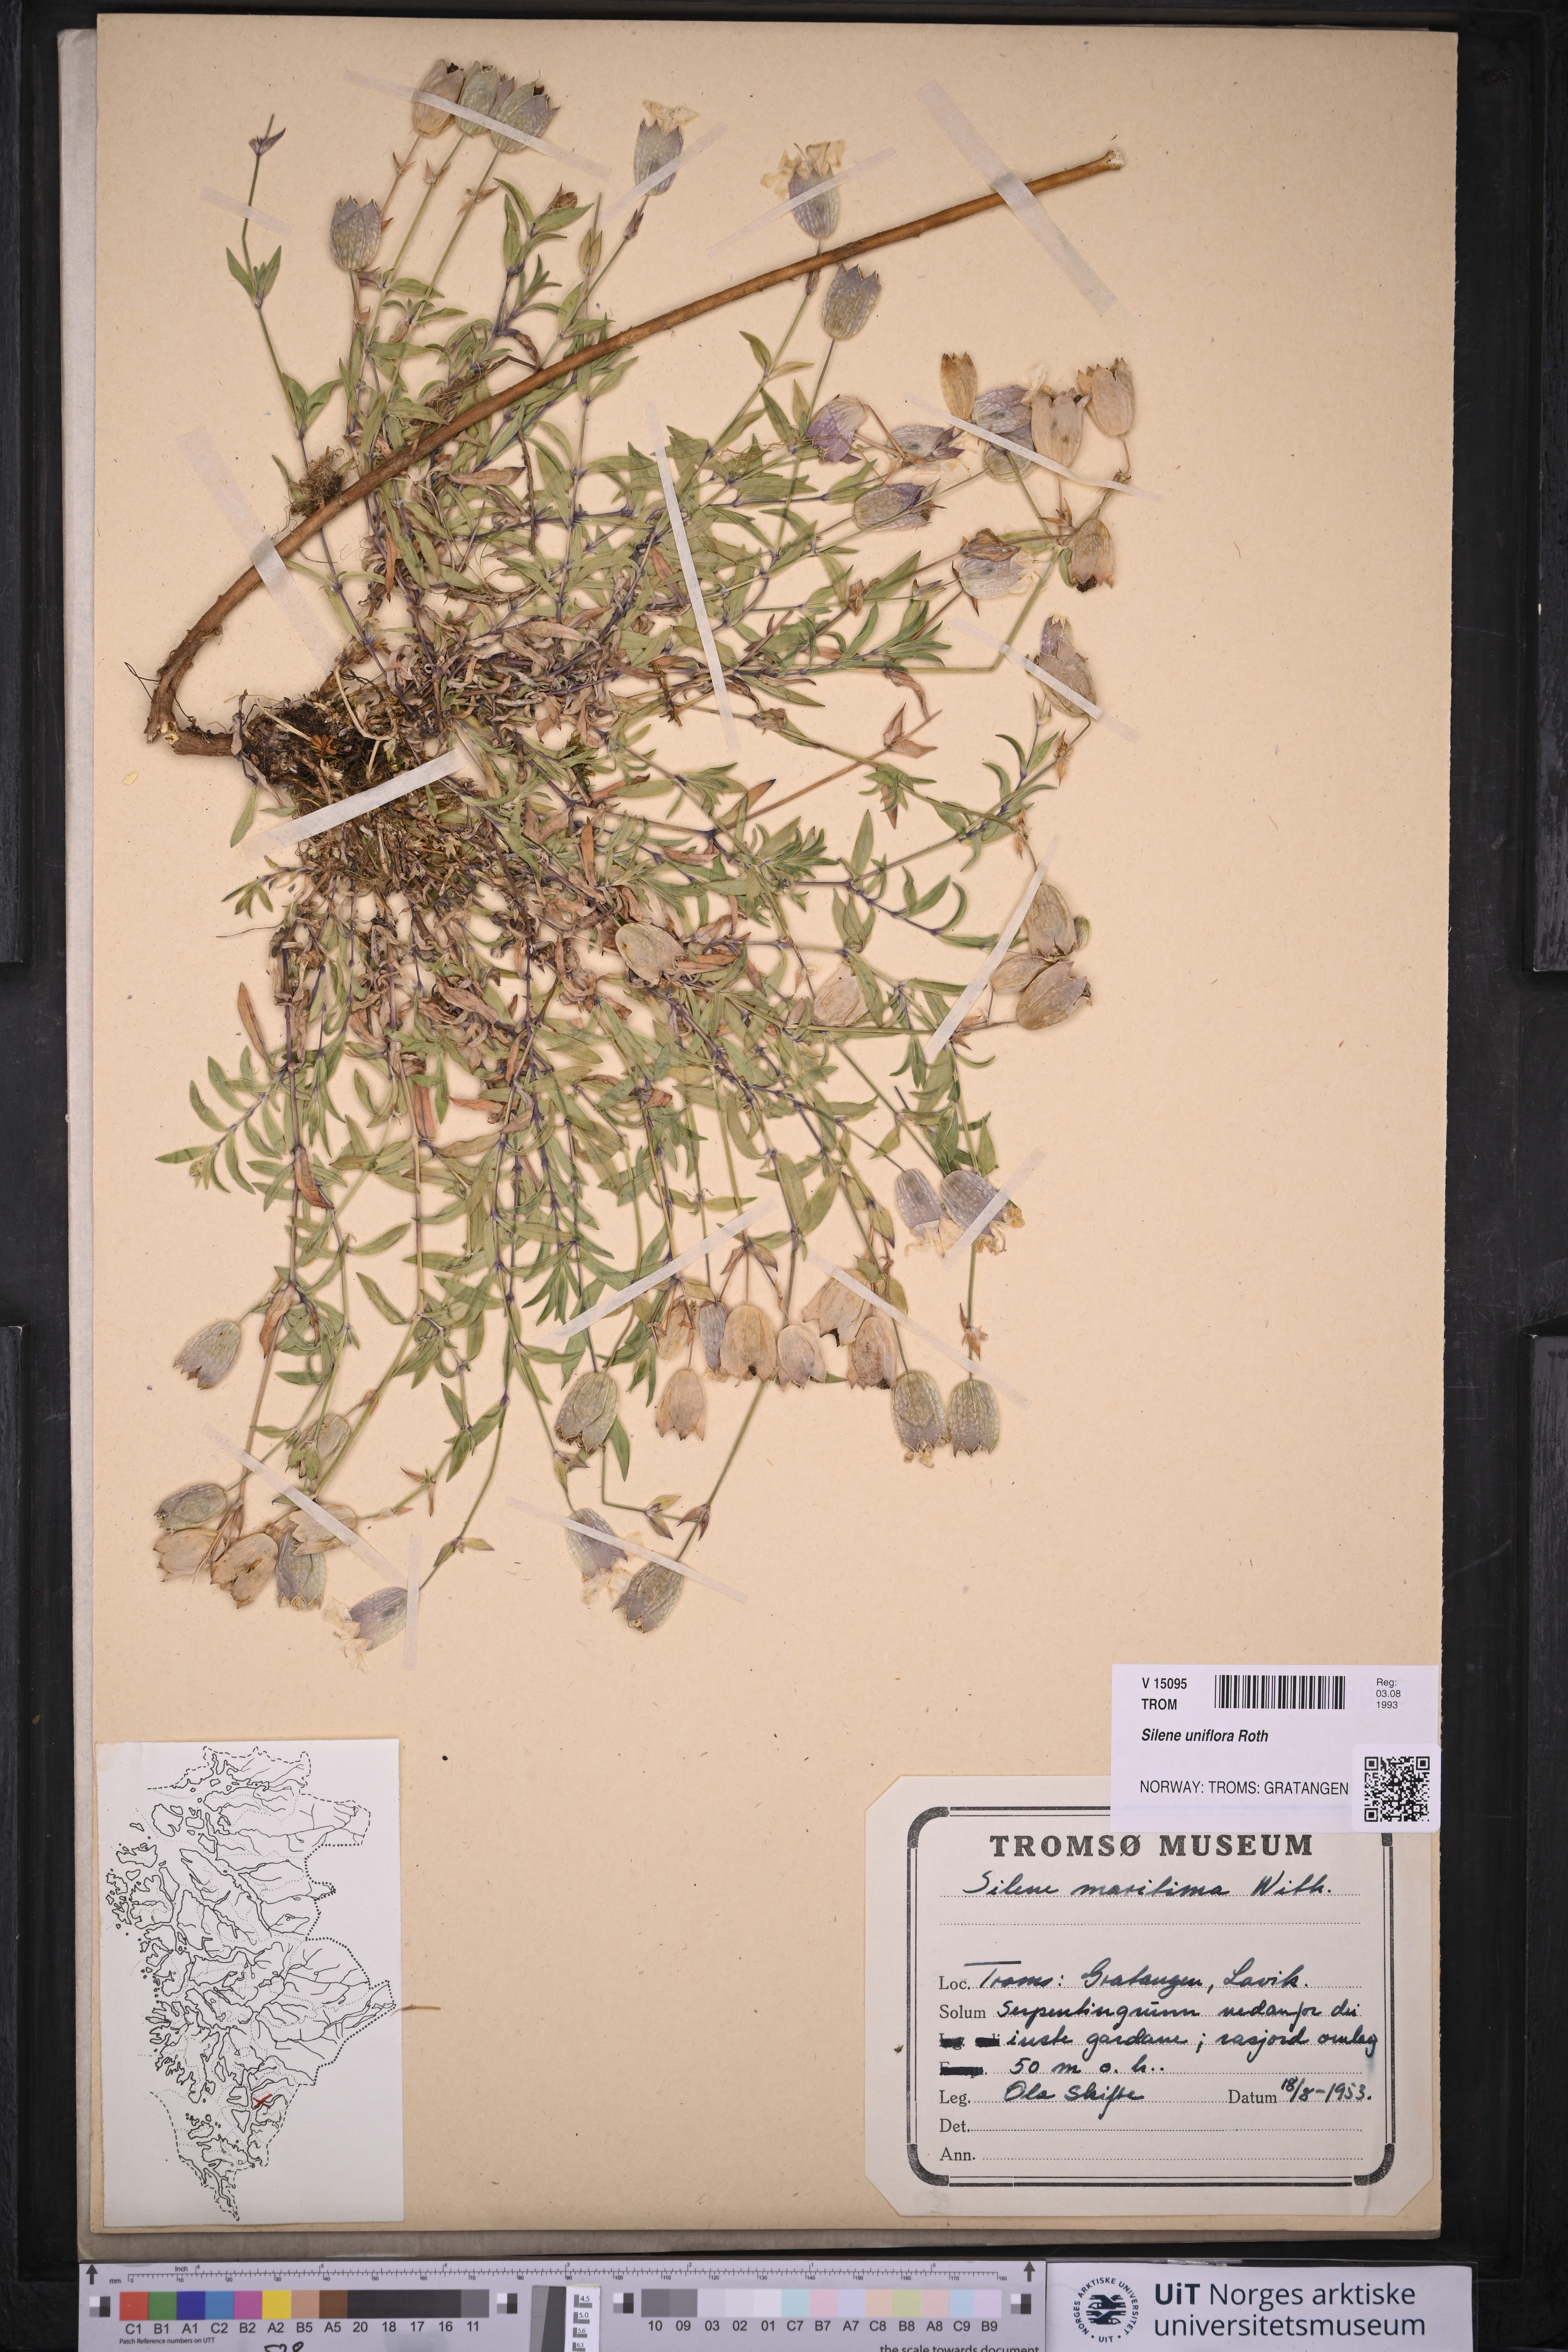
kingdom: Plantae
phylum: Tracheophyta
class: Magnoliopsida
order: Caryophyllales
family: Caryophyllaceae
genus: Silene
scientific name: Silene uniflora
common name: Sea campion
